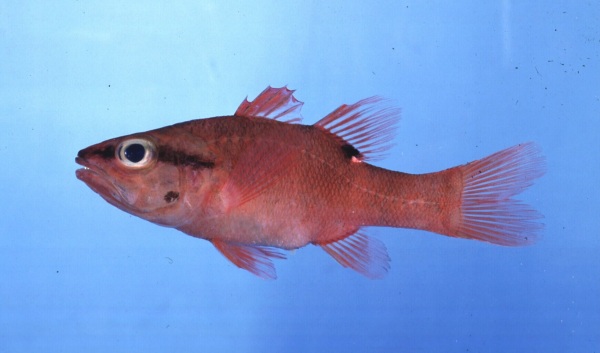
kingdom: Animalia
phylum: Chordata
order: Perciformes
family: Apogonidae
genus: Zapogon
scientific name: Zapogon evermanni
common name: Cave cardinalfish
